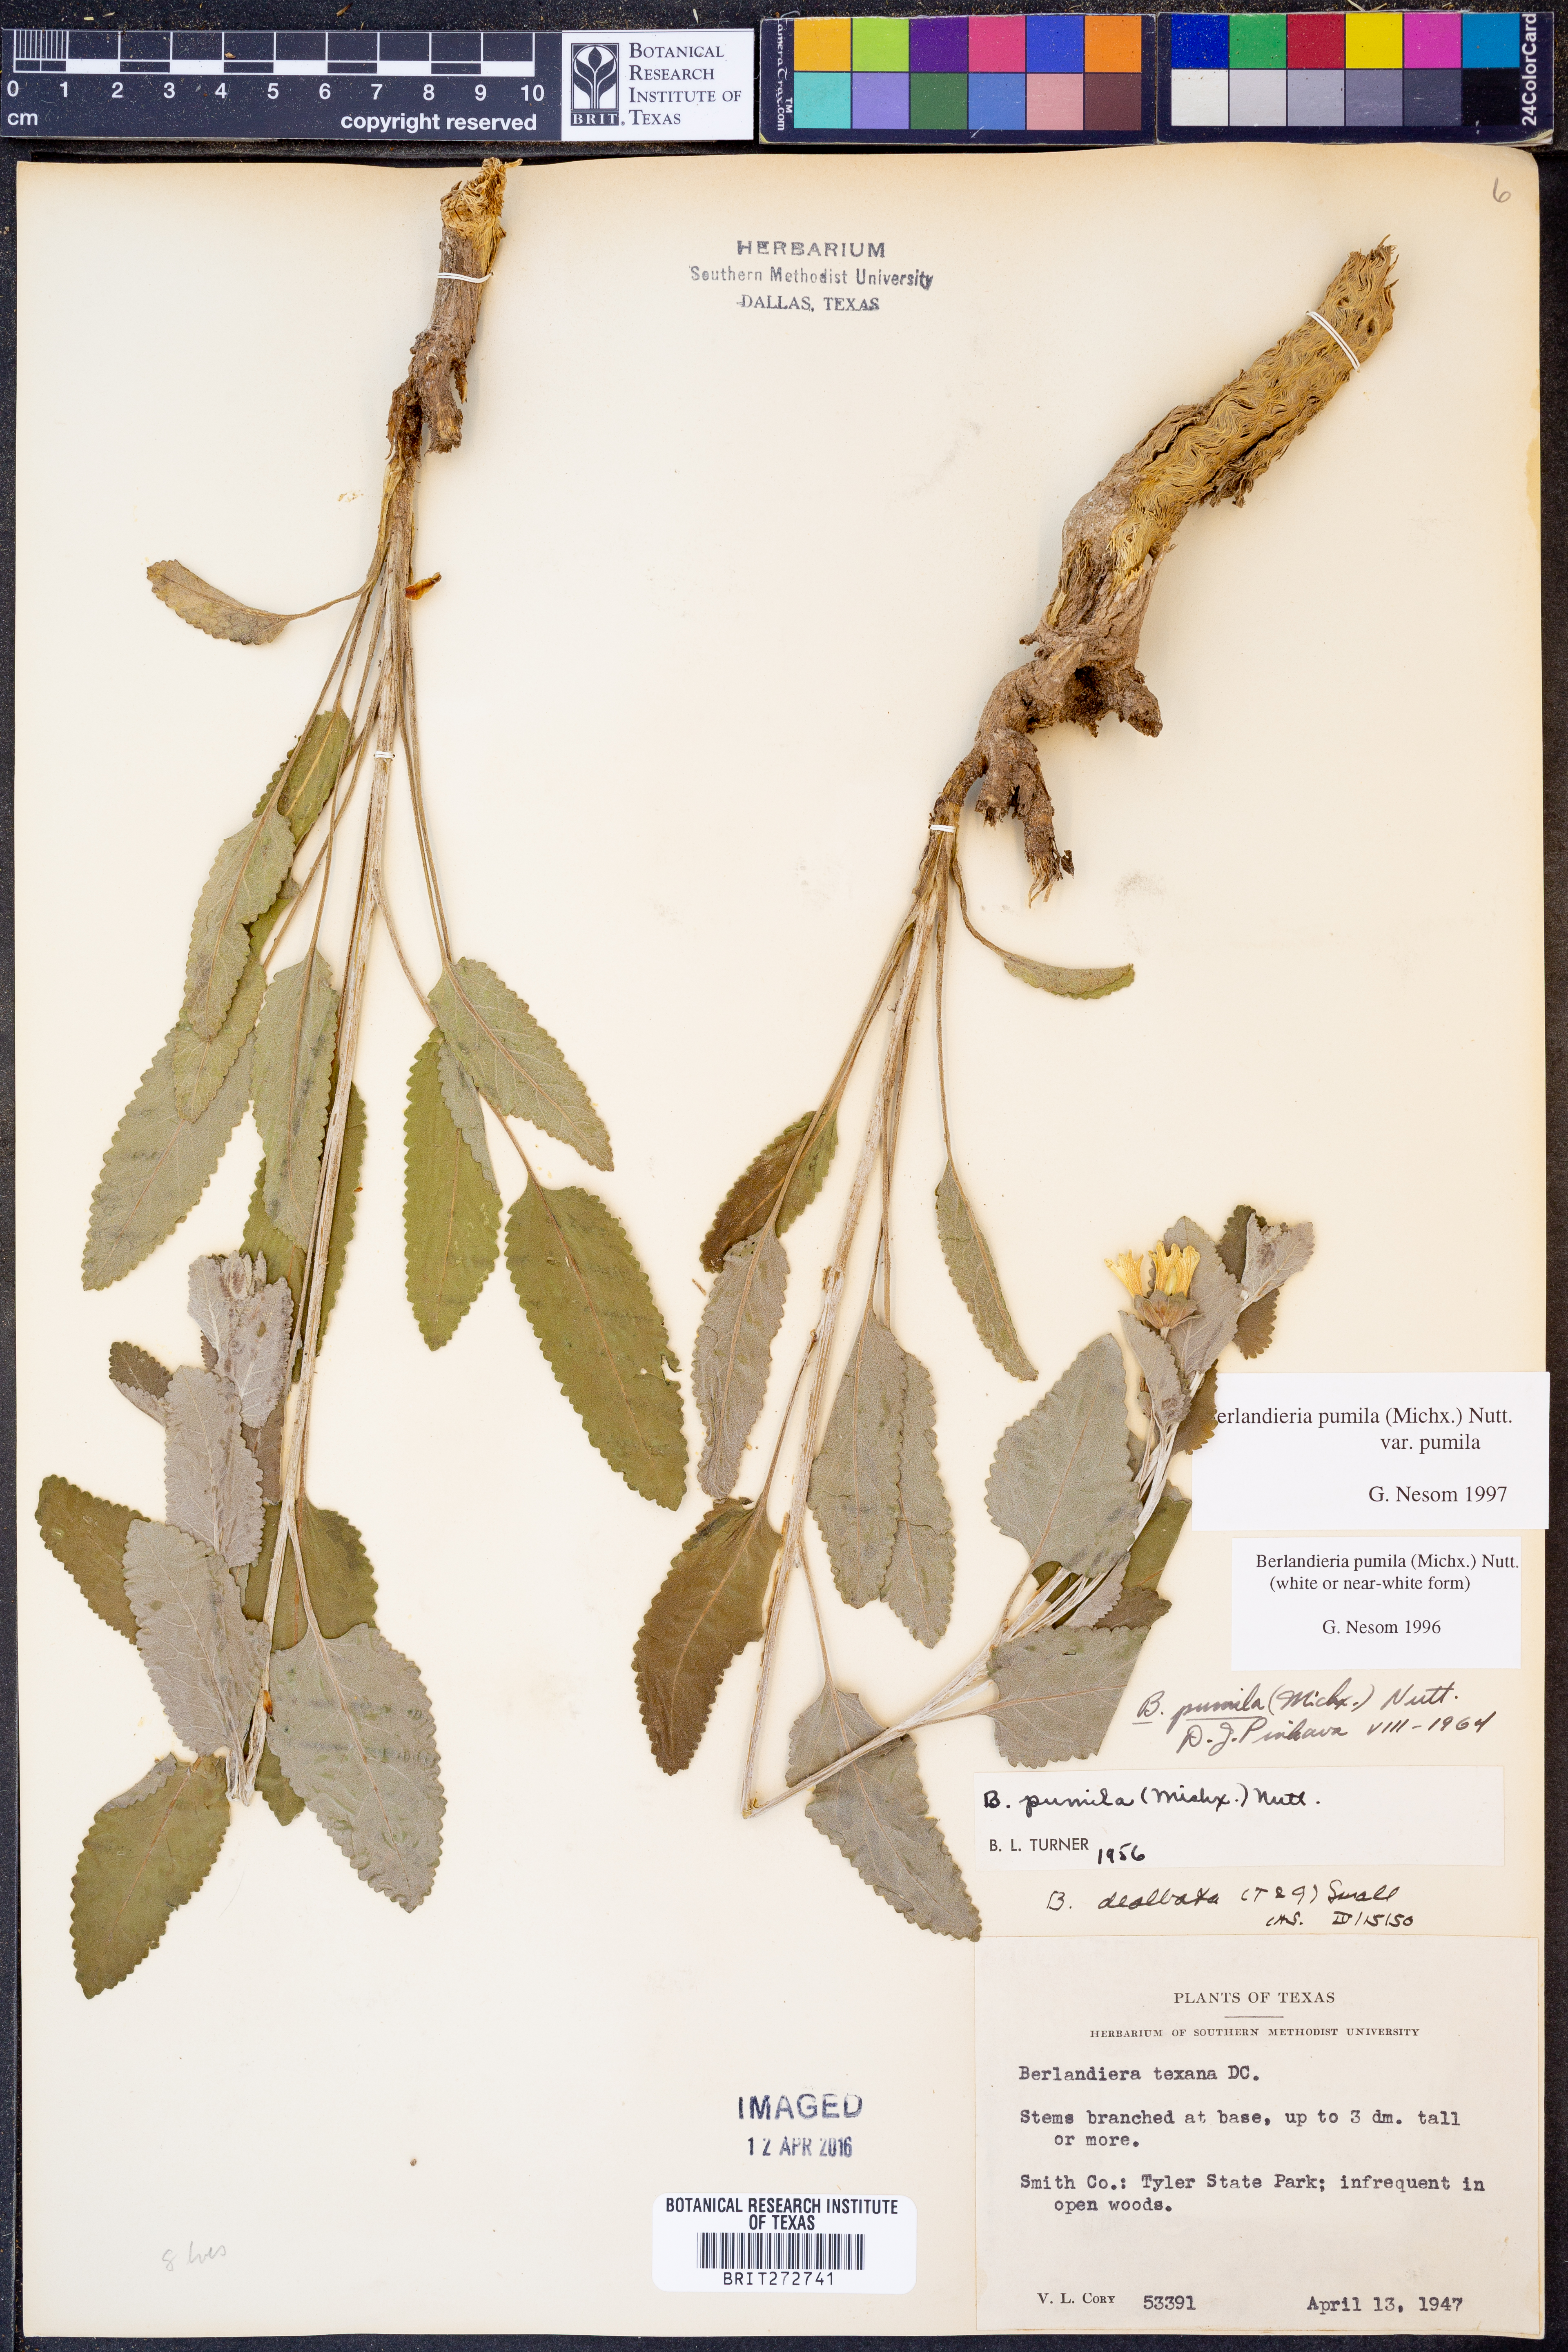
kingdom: Plantae
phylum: Tracheophyta
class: Magnoliopsida
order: Asterales
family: Asteraceae
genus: Berlandiera
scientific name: Berlandiera pumila
